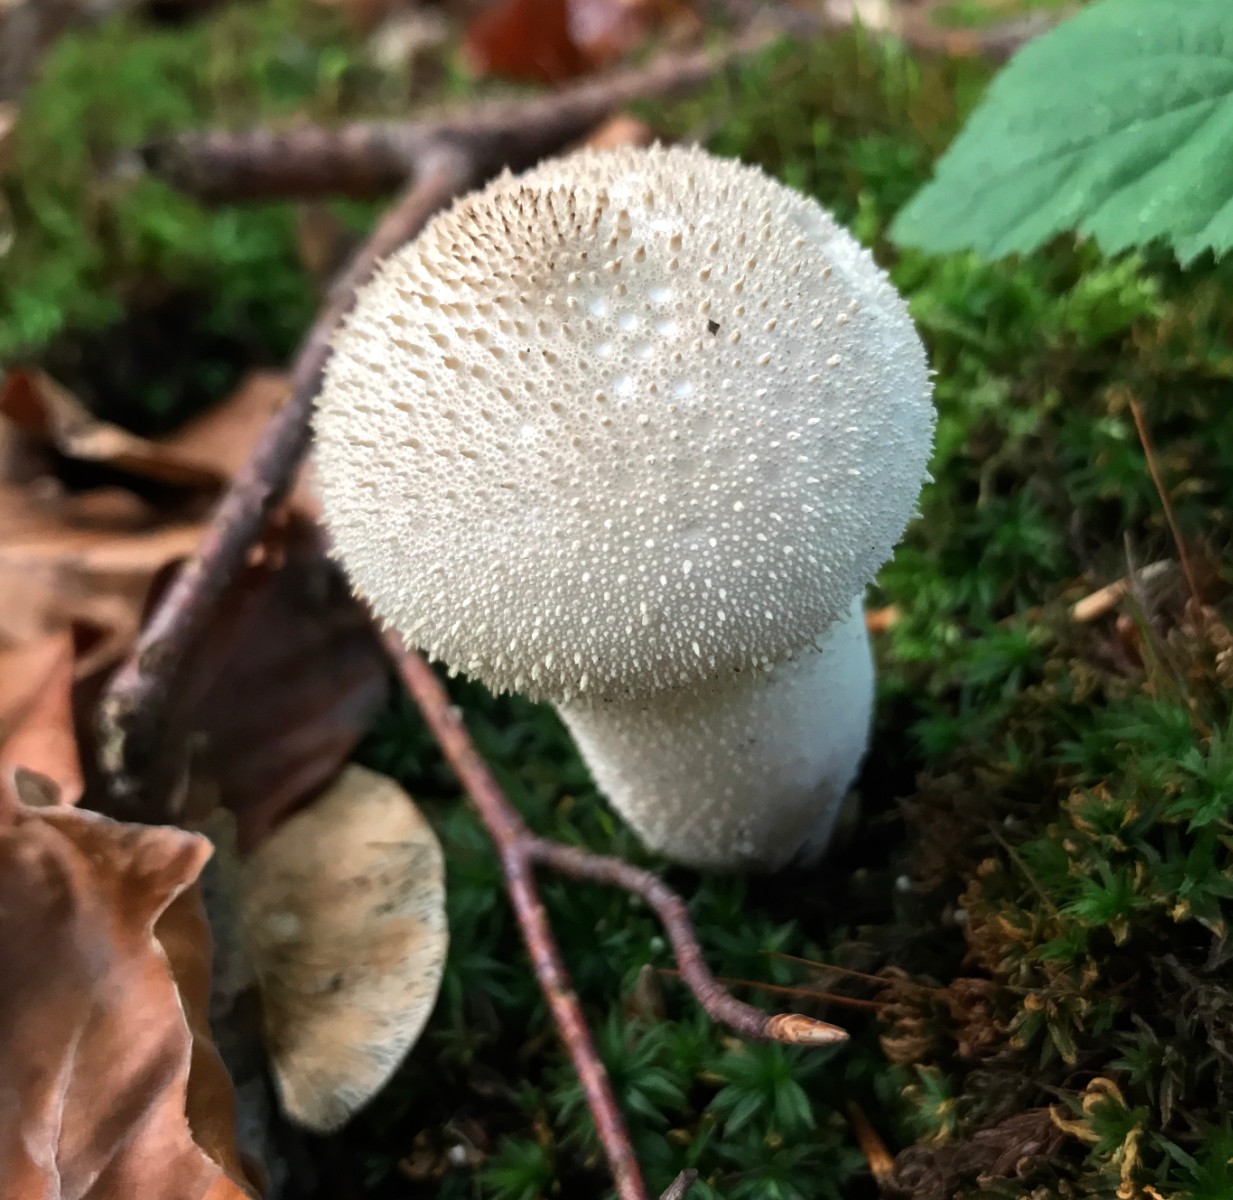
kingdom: Fungi
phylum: Basidiomycota
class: Agaricomycetes
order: Agaricales
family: Lycoperdaceae
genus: Lycoperdon
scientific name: Lycoperdon perlatum
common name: krystal-støvbold
